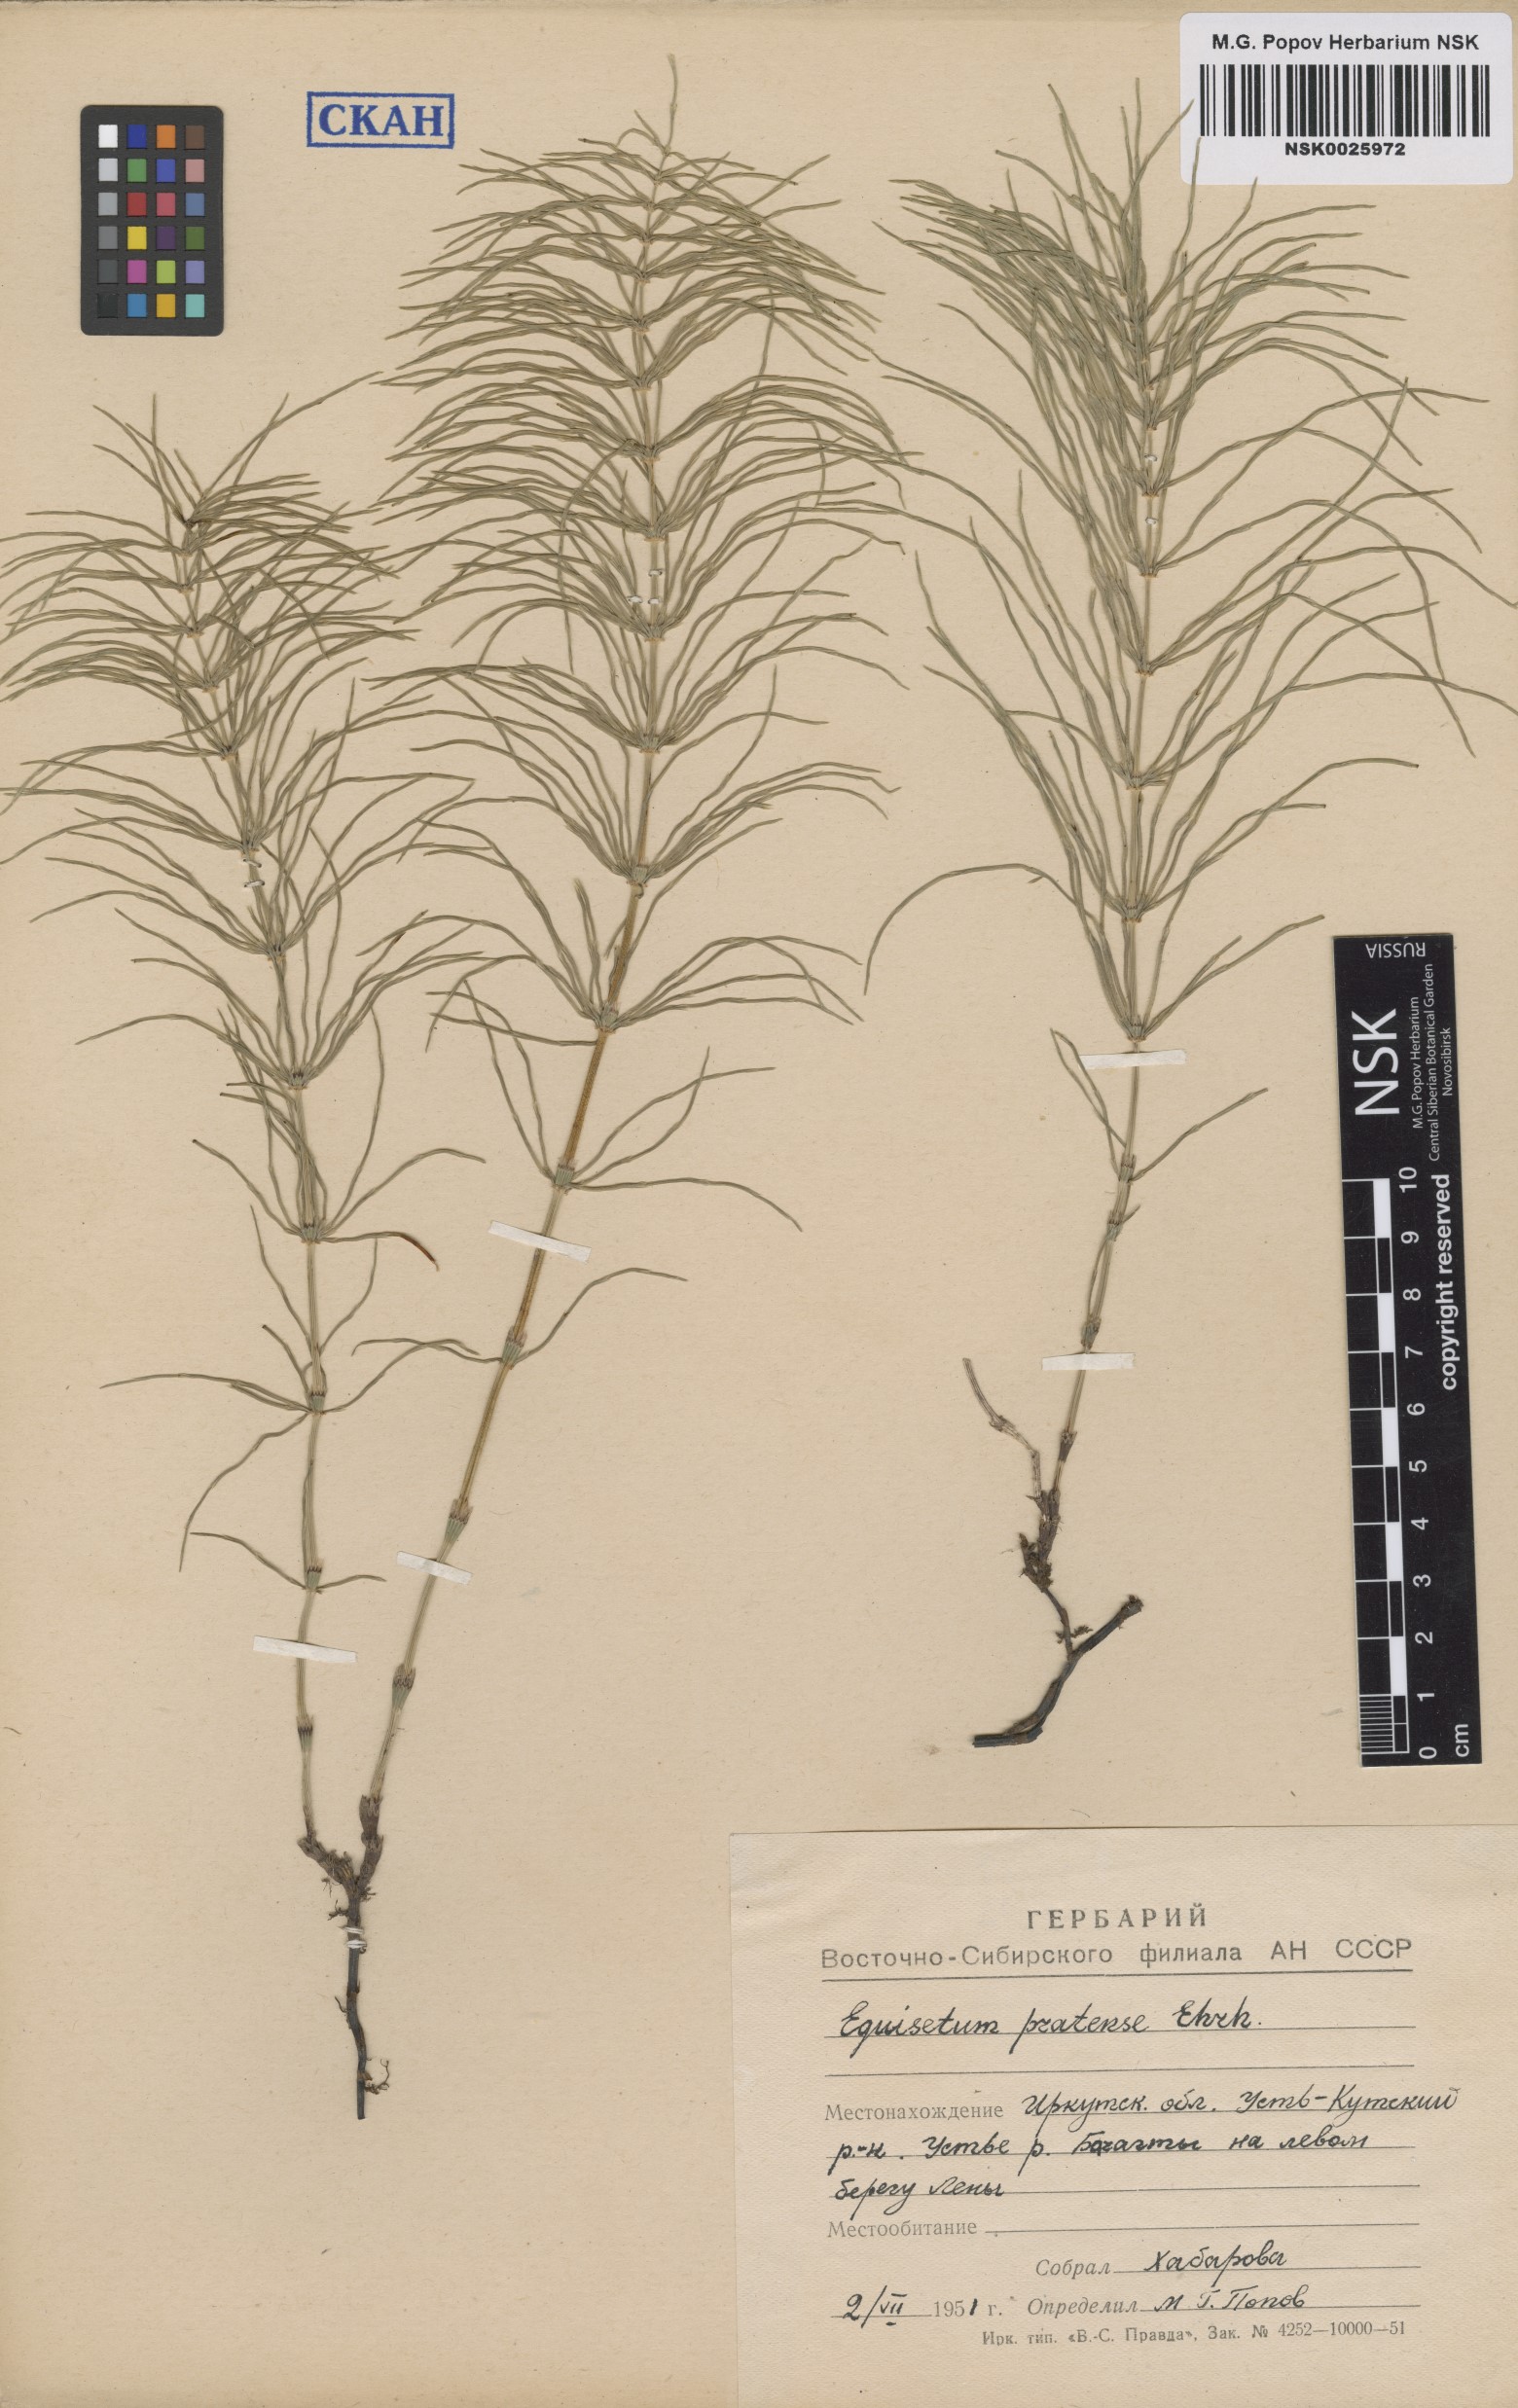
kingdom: Plantae
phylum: Tracheophyta
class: Polypodiopsida
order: Equisetales
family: Equisetaceae
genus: Equisetum
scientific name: Equisetum pratense
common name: Meadow horsetail
